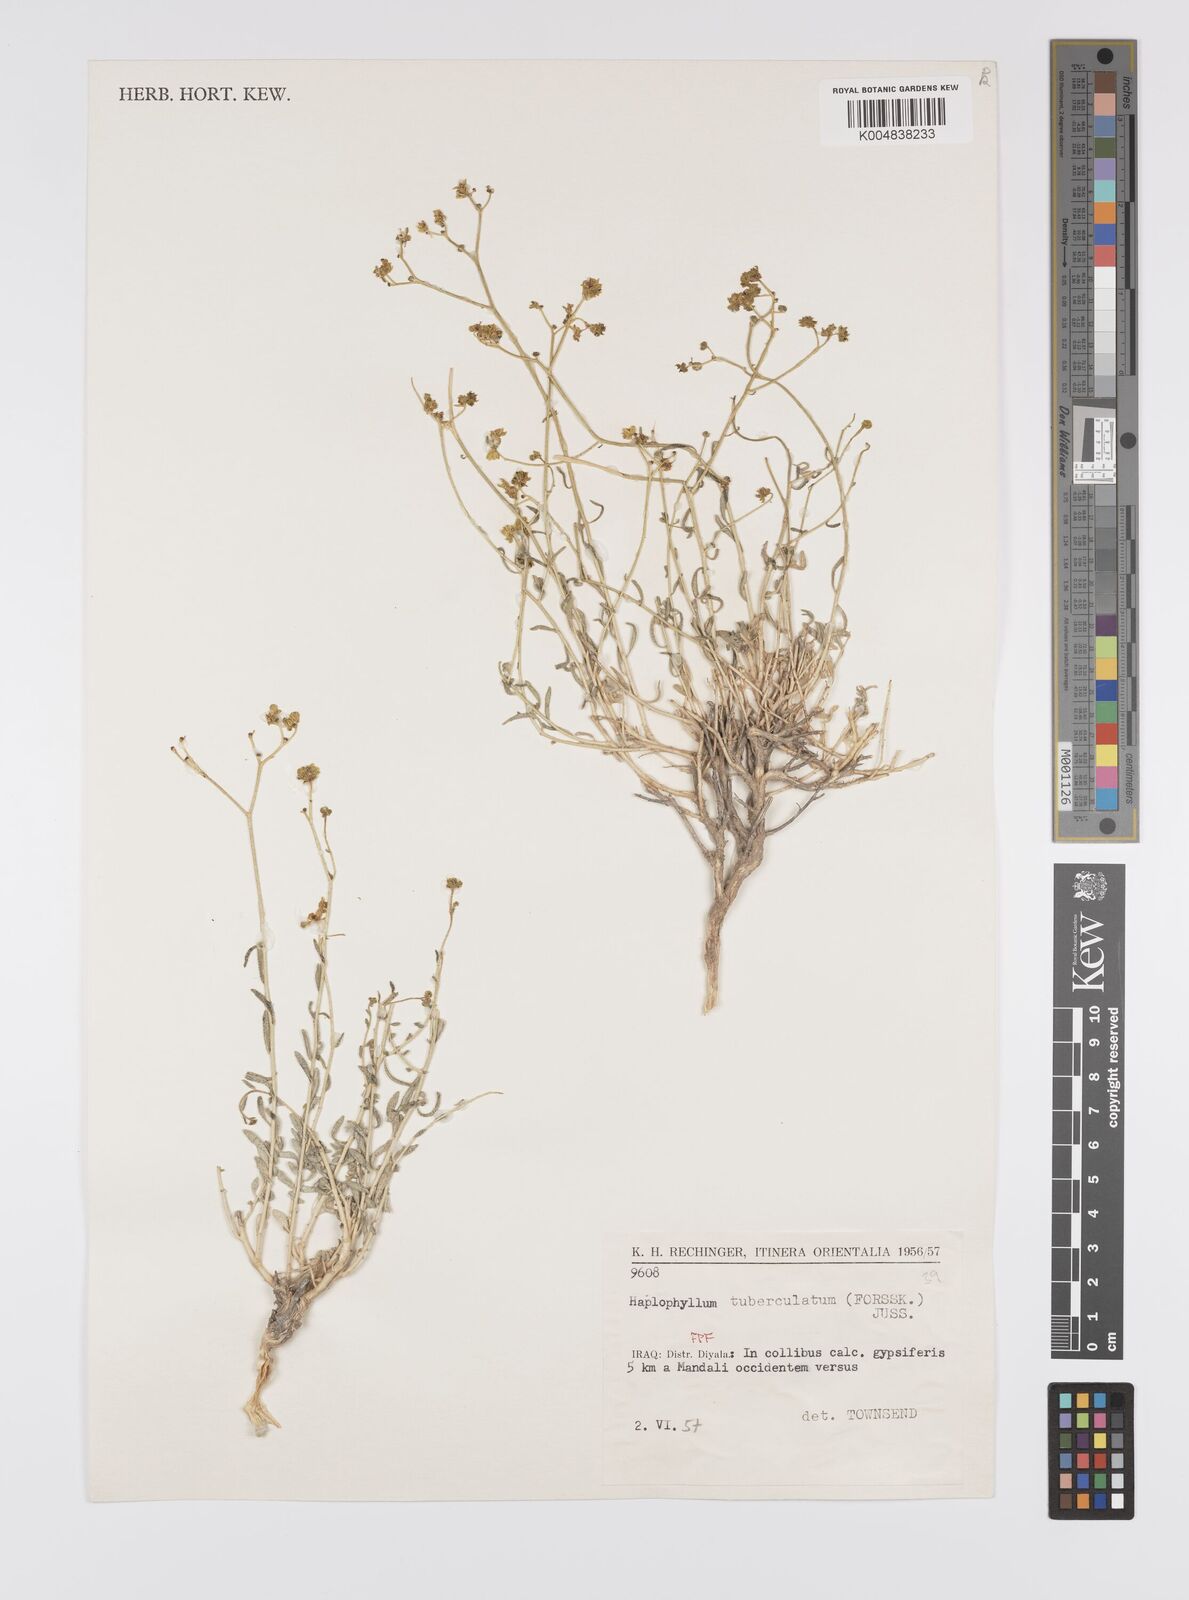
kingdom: Plantae
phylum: Tracheophyta
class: Magnoliopsida
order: Sapindales
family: Rutaceae
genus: Haplophyllum
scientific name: Haplophyllum tuberculatum
